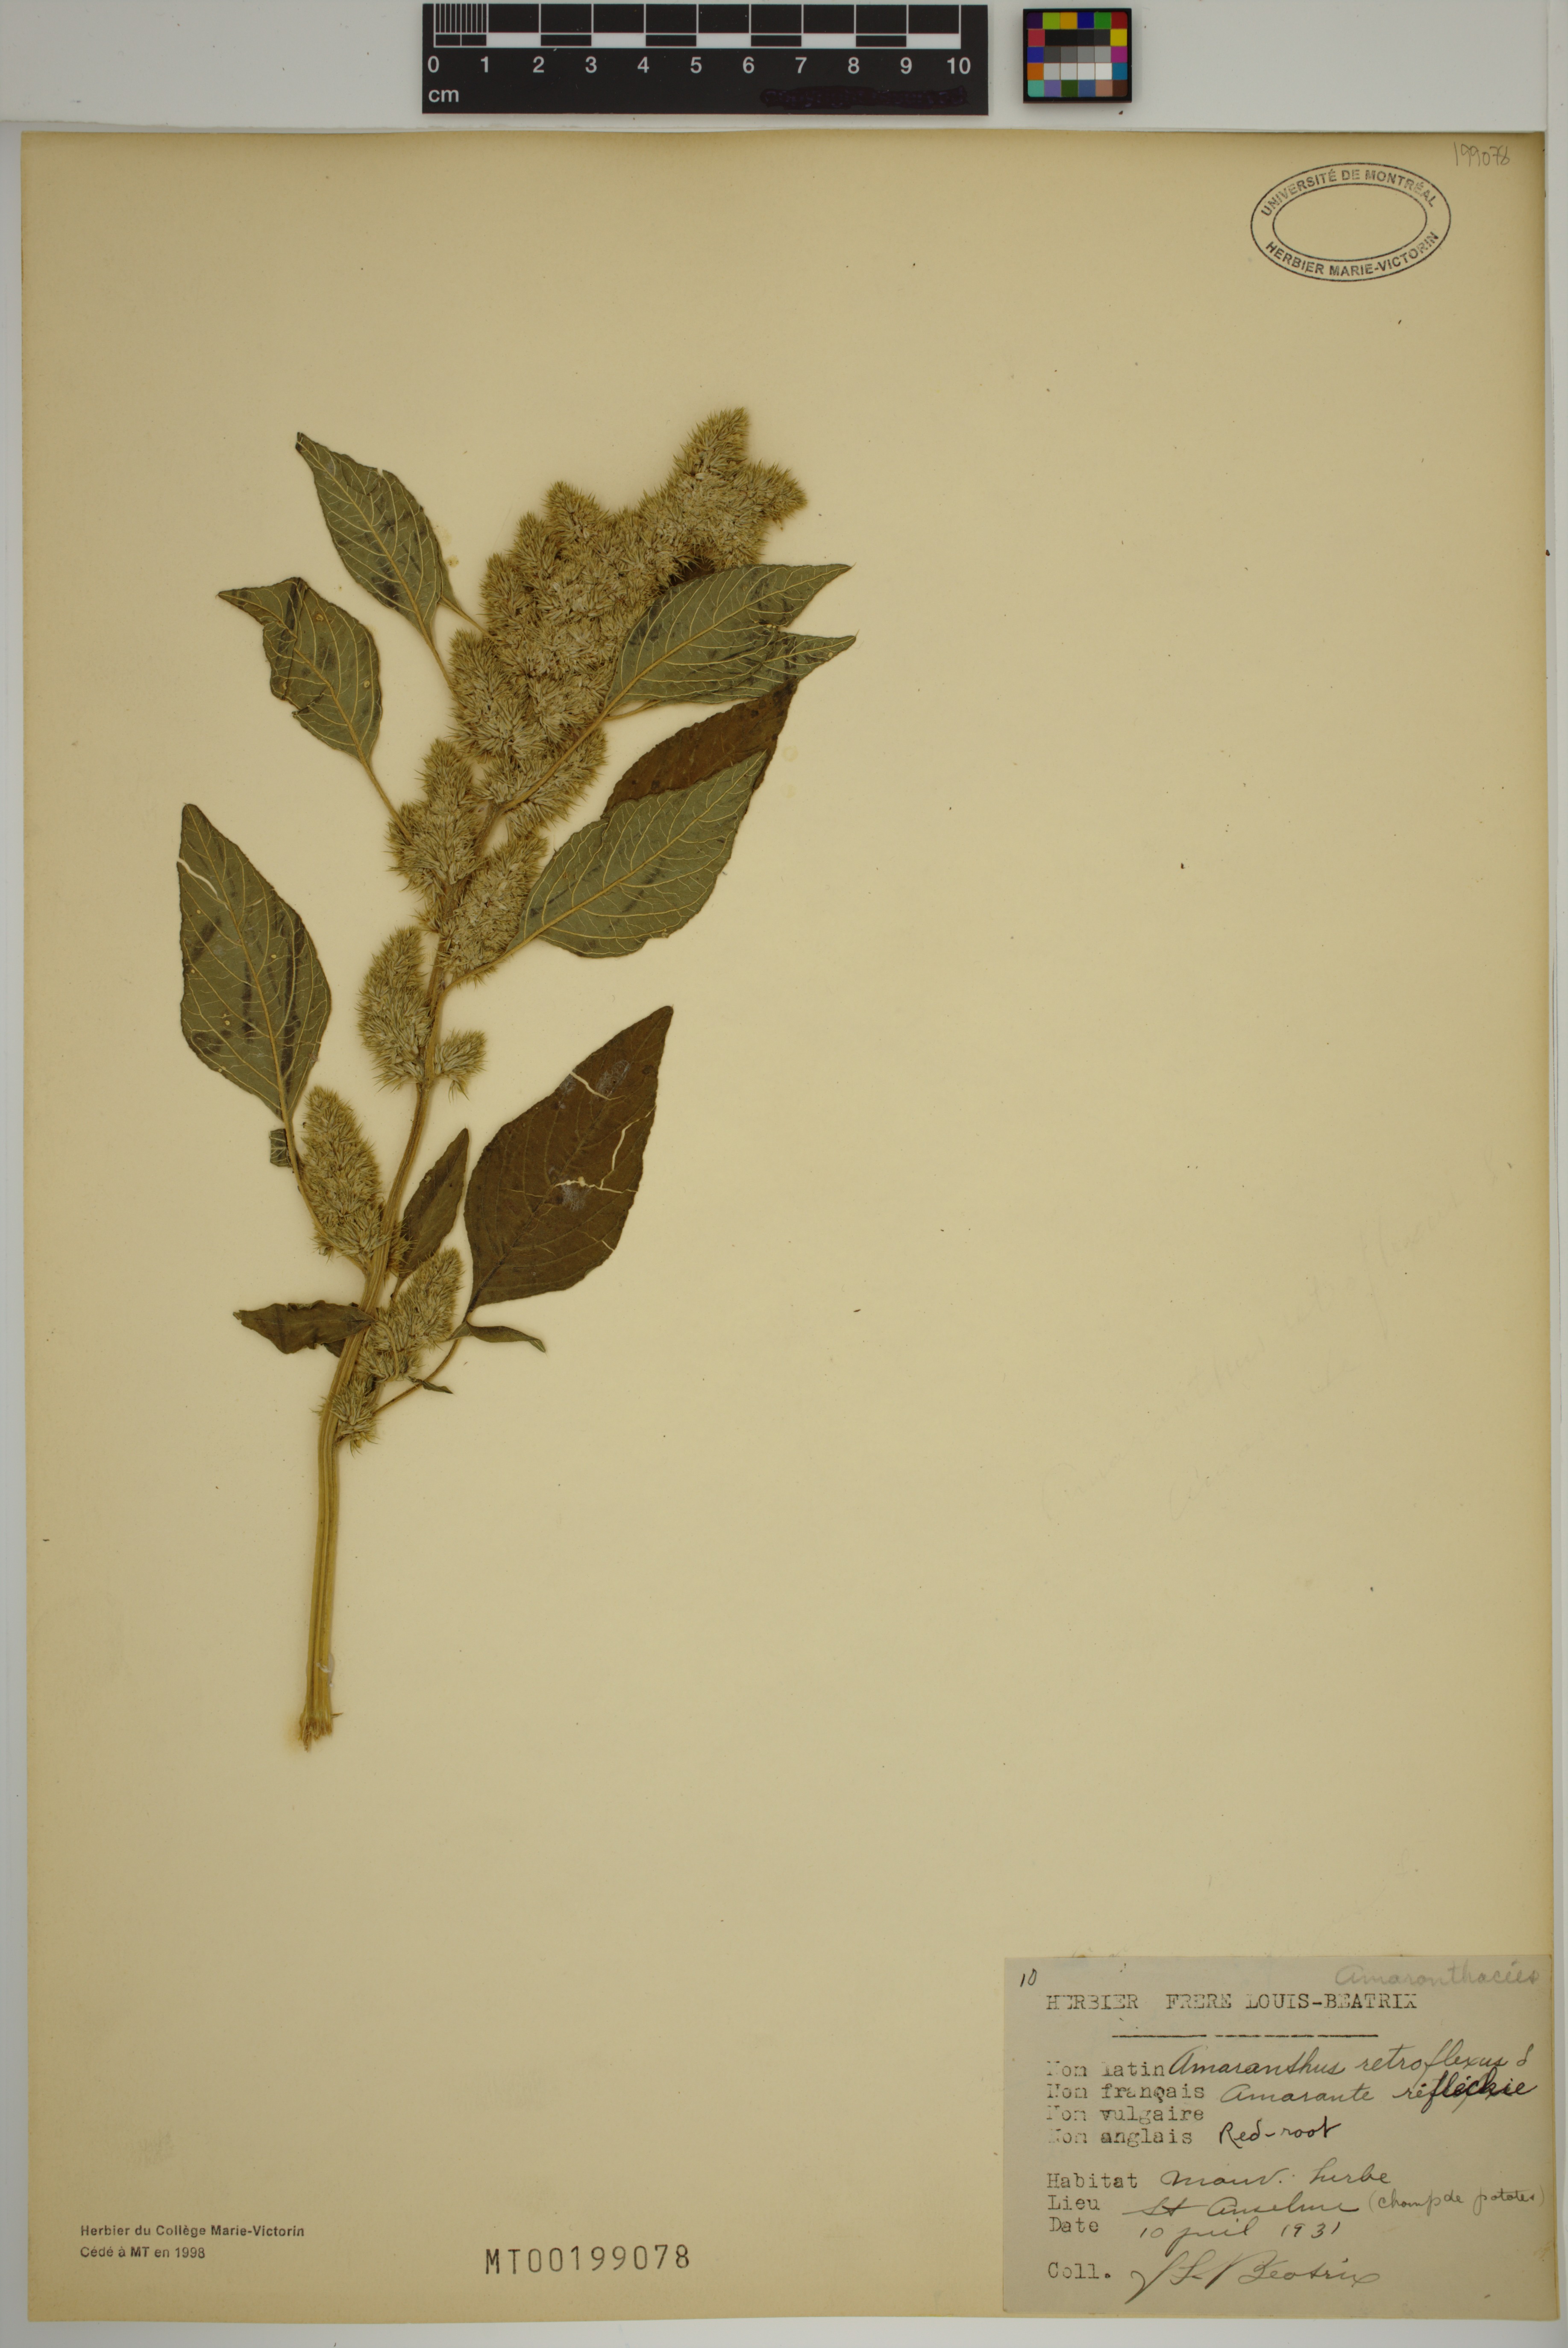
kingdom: Plantae
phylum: Tracheophyta
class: Magnoliopsida
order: Caryophyllales
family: Amaranthaceae
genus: Amaranthus
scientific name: Amaranthus retroflexus
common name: Redroot amaranth
